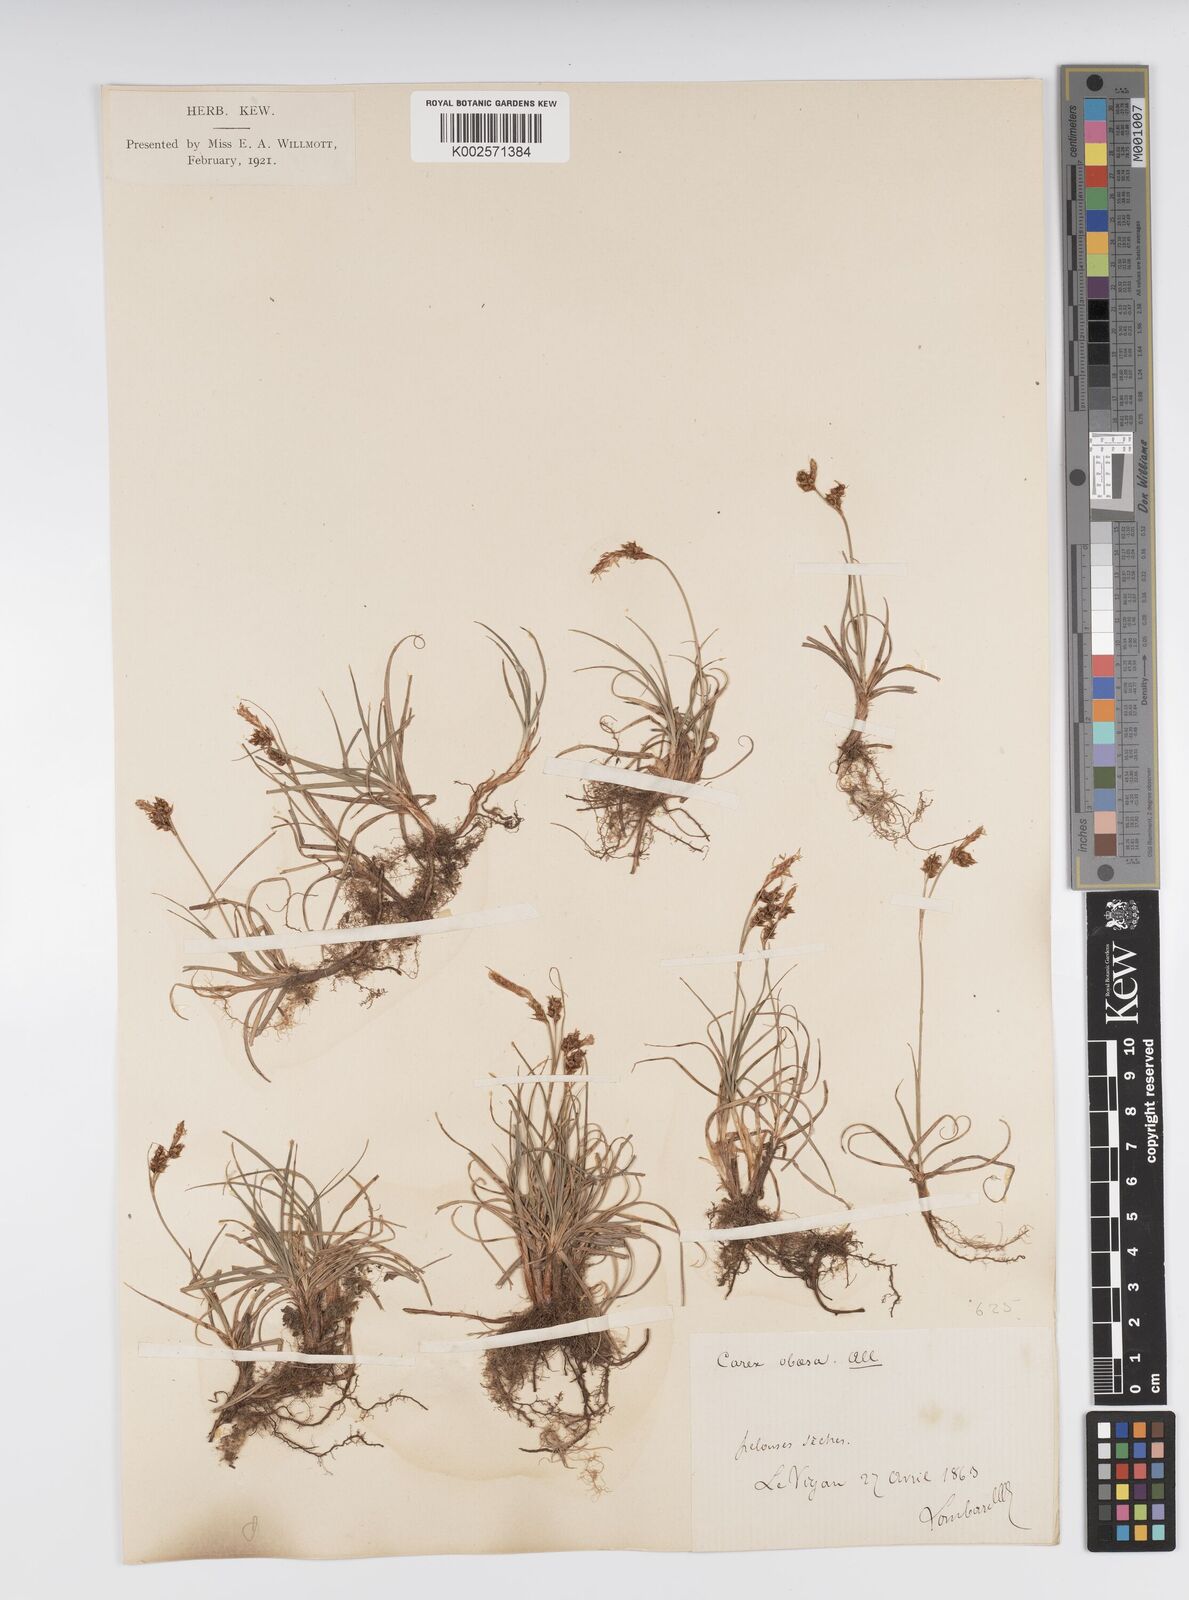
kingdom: Plantae
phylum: Tracheophyta
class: Liliopsida
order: Poales
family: Cyperaceae
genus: Carex
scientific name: Carex liparocarpos
